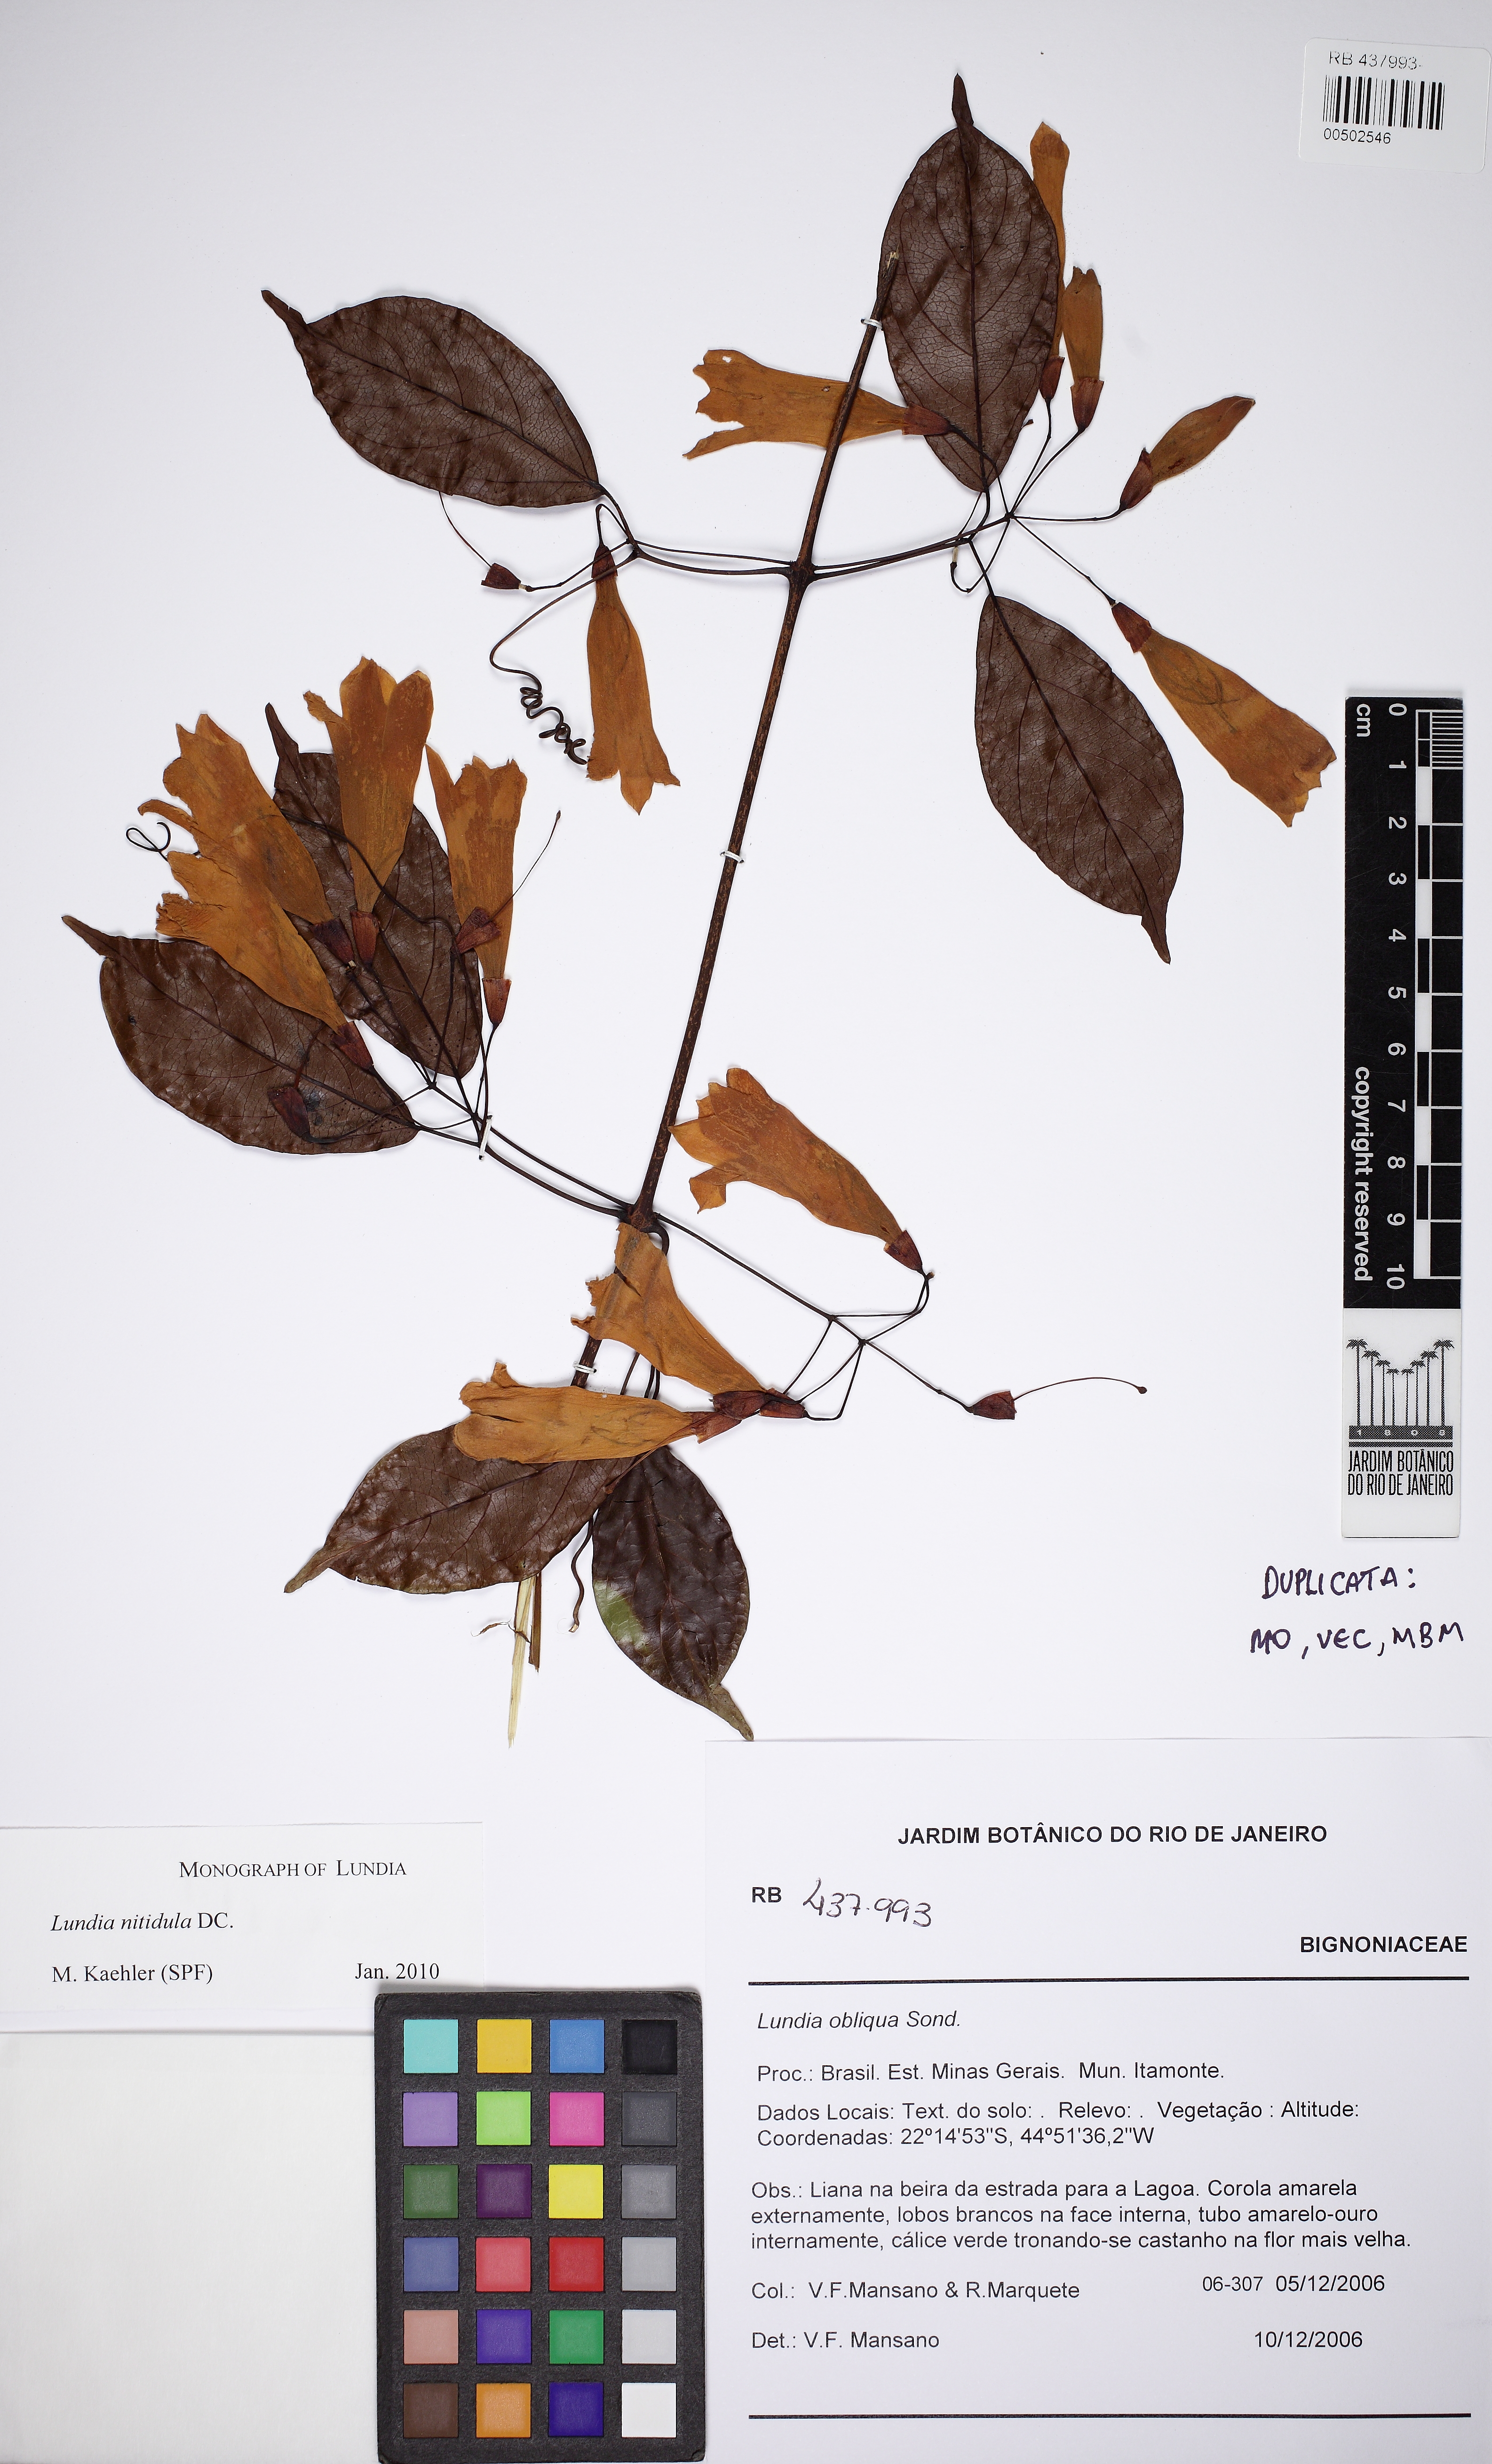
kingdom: Plantae
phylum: Tracheophyta
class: Magnoliopsida
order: Lamiales
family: Bignoniaceae
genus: Lundia
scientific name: Lundia nitidula
